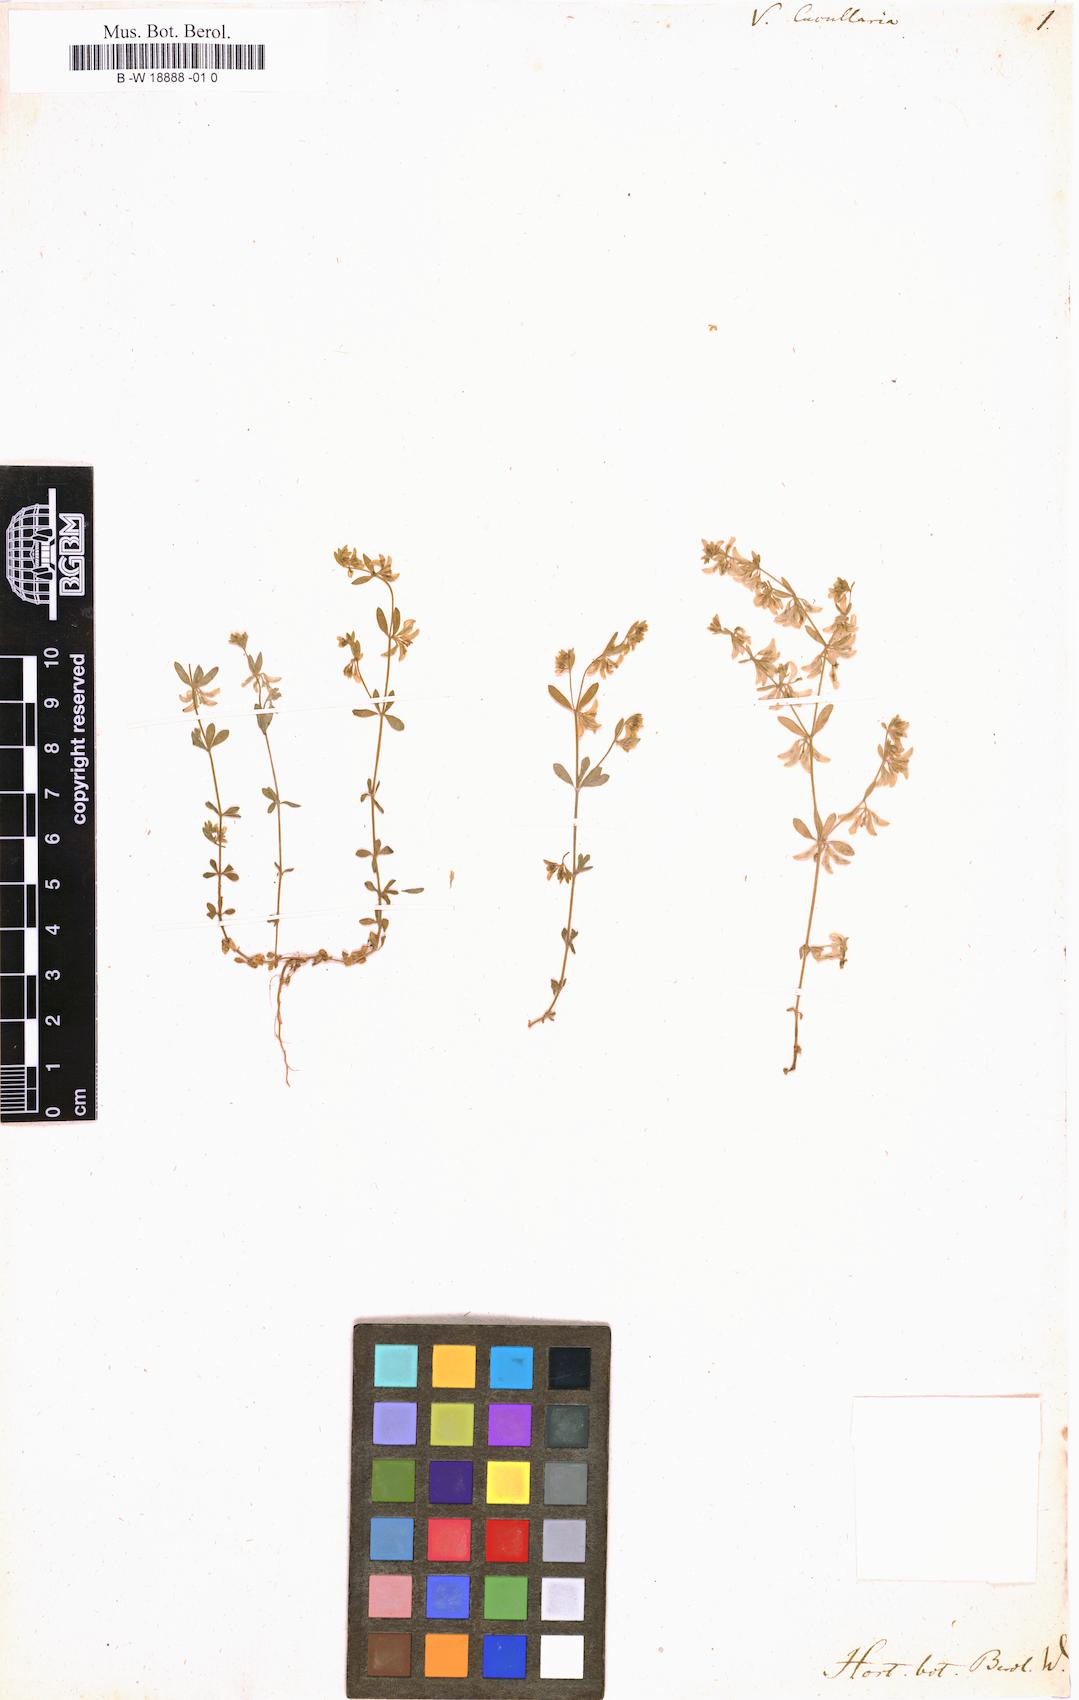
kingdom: Plantae
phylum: Tracheophyta
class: Magnoliopsida
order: Gentianales
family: Rubiaceae
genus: Valantia
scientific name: Valantia cucullaria
